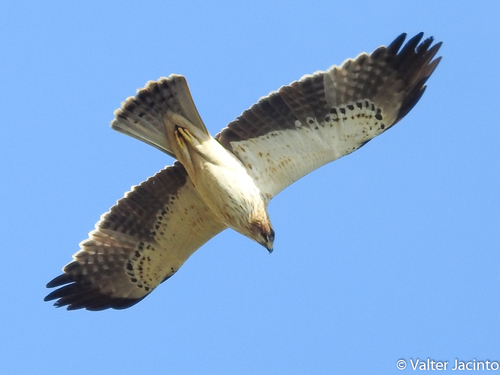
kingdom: Animalia
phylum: Chordata
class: Aves
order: Accipitriformes
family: Accipitridae
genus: Hieraaetus
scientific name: Hieraaetus pennatus
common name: Booted eagle
